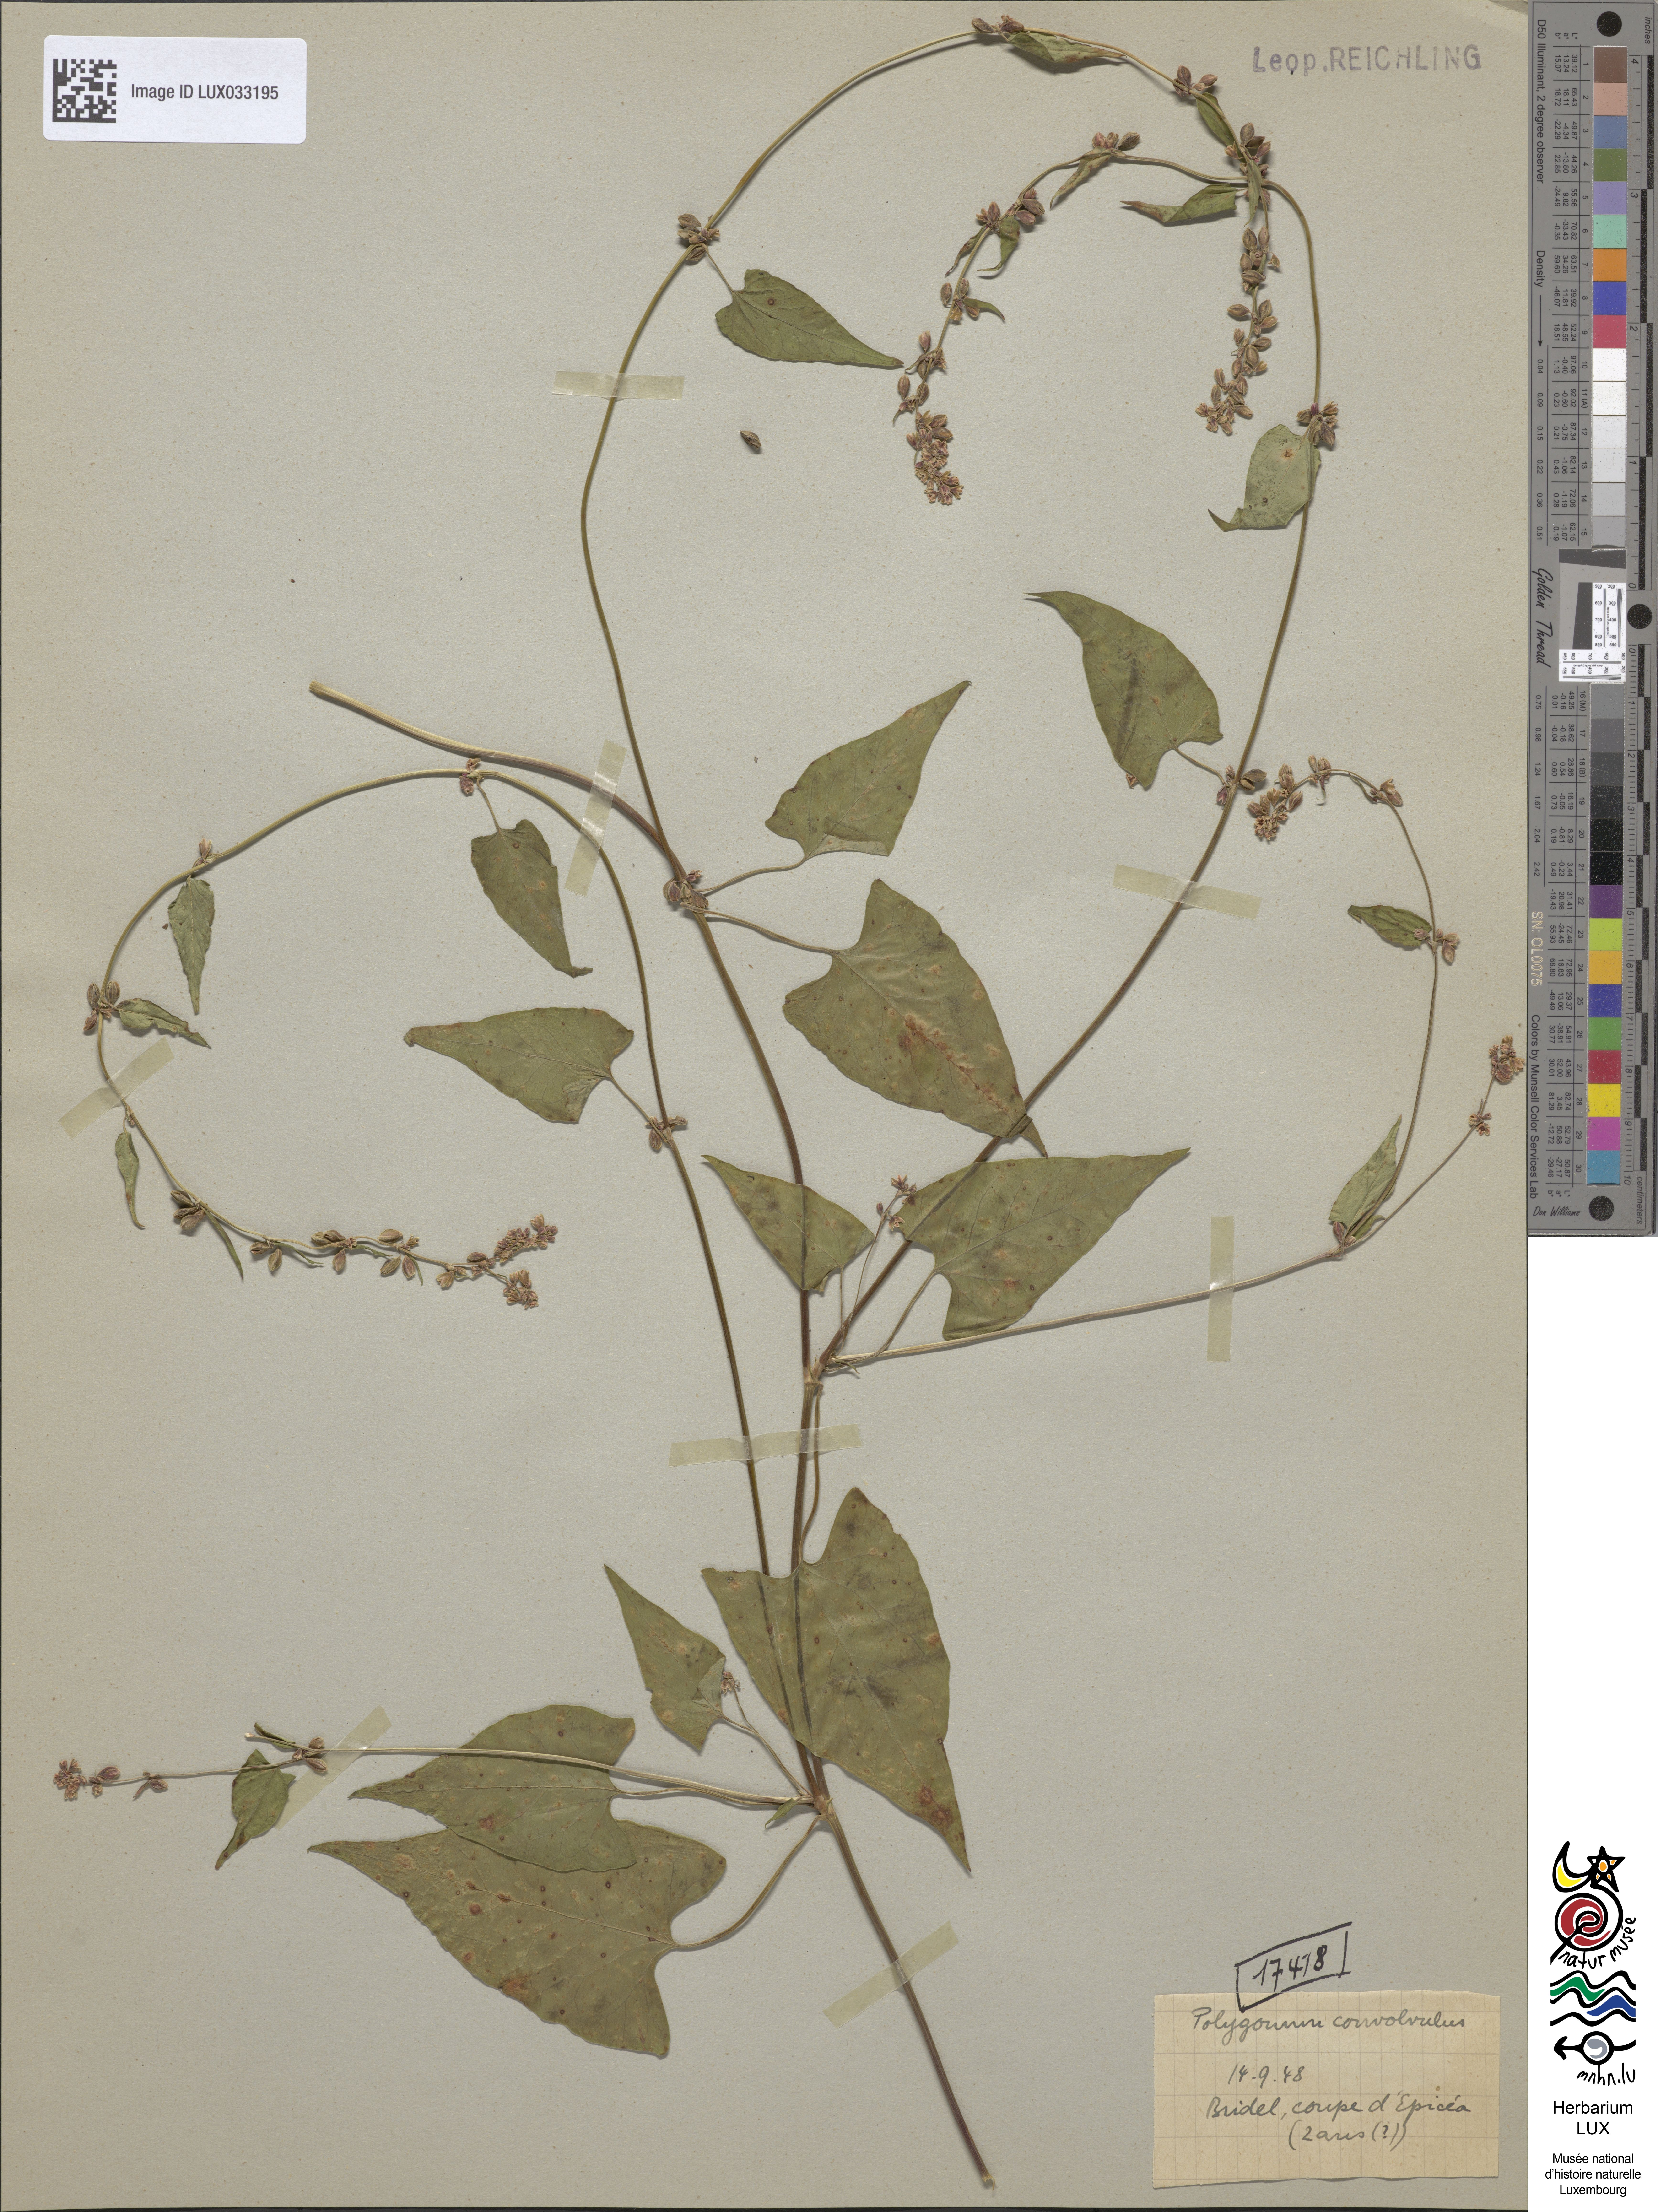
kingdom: Plantae
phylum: Tracheophyta
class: Magnoliopsida
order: Caryophyllales
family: Polygonaceae
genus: Fallopia
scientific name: Fallopia convolvulus
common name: Black bindweed
